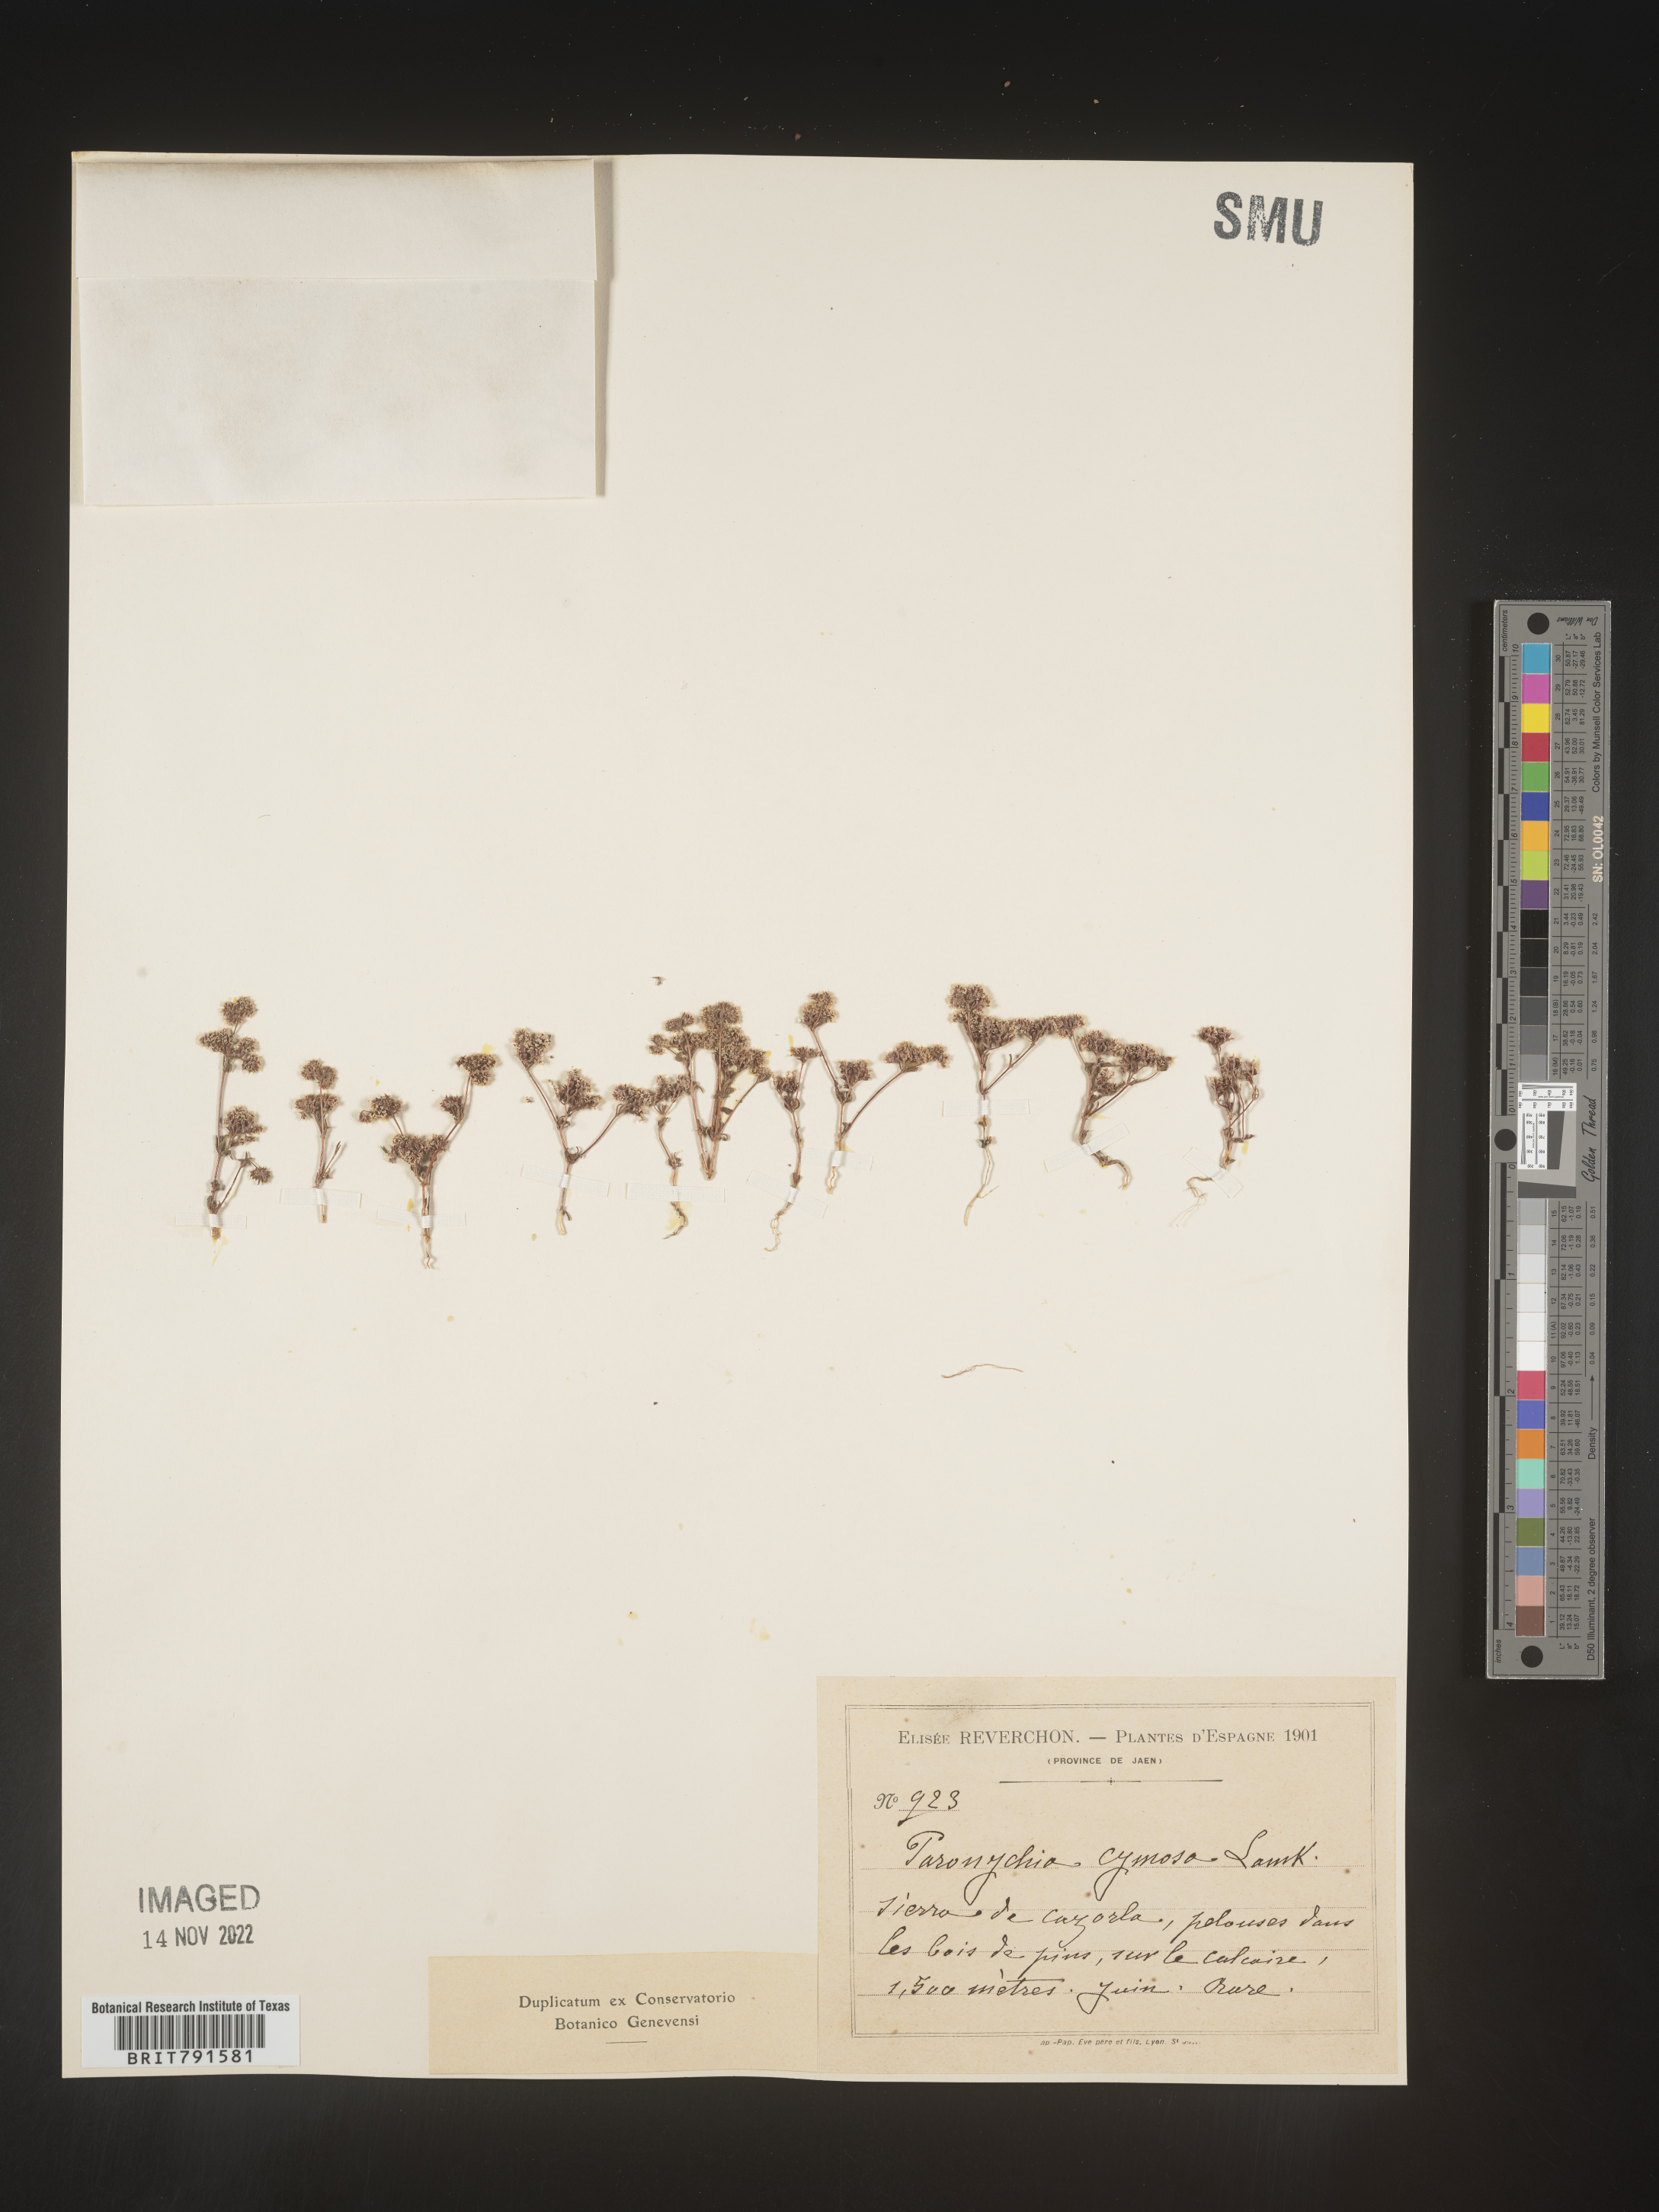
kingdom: Plantae
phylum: Tracheophyta
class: Magnoliopsida
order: Caryophyllales
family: Caryophyllaceae
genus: Paronychia
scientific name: Paronychia
